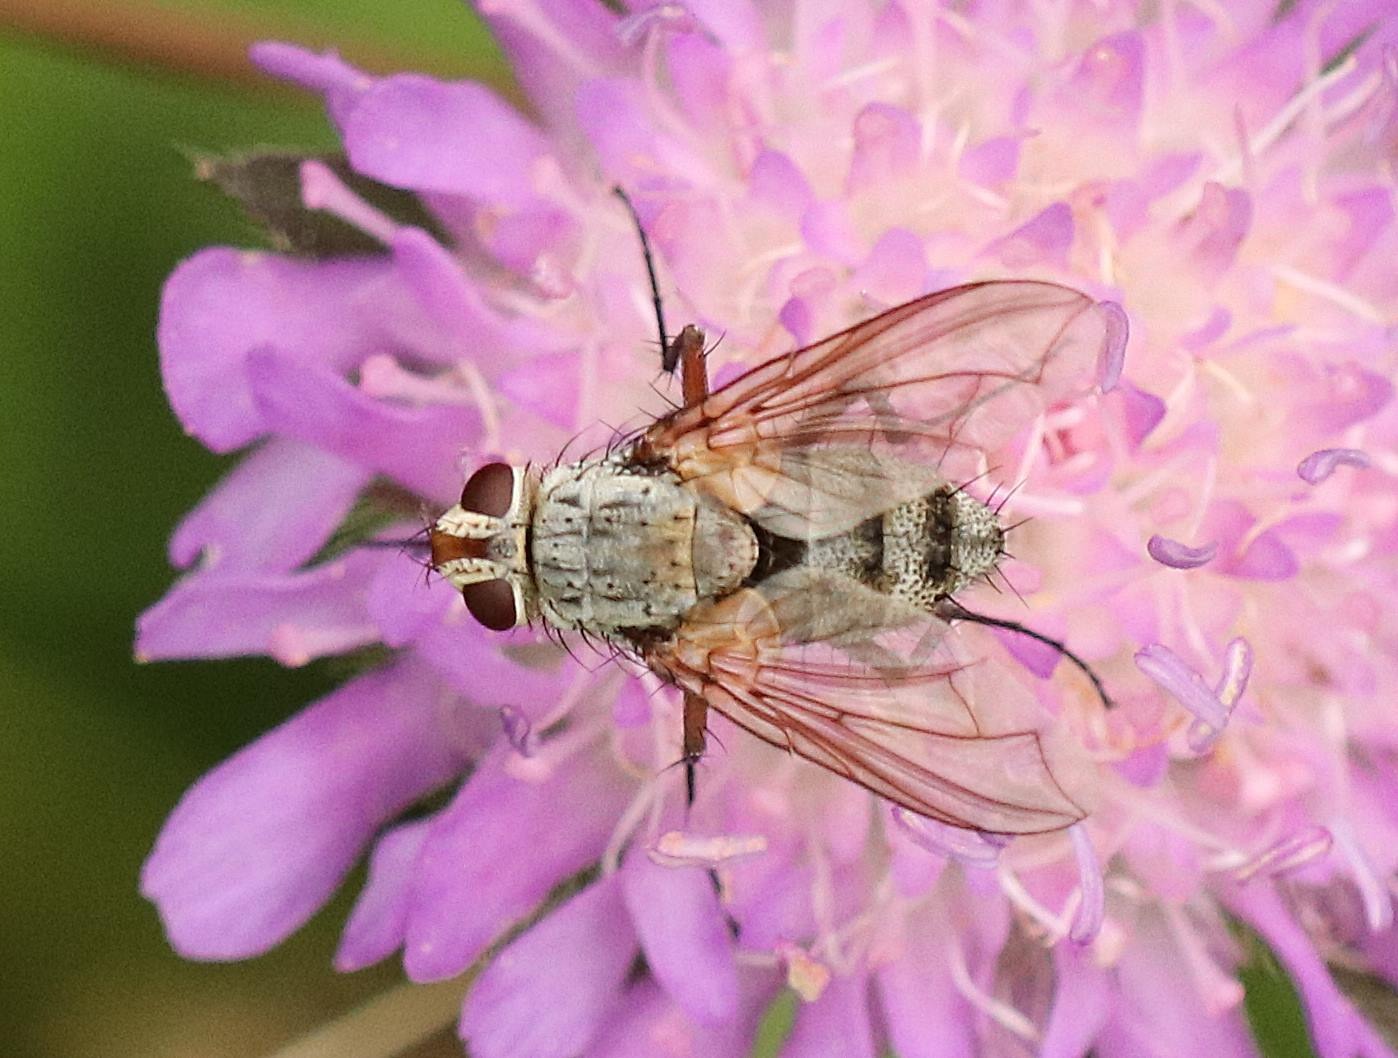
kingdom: Animalia
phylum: Arthropoda
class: Insecta
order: Diptera
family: Tachinidae
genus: Prosena
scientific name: Prosena siberita
